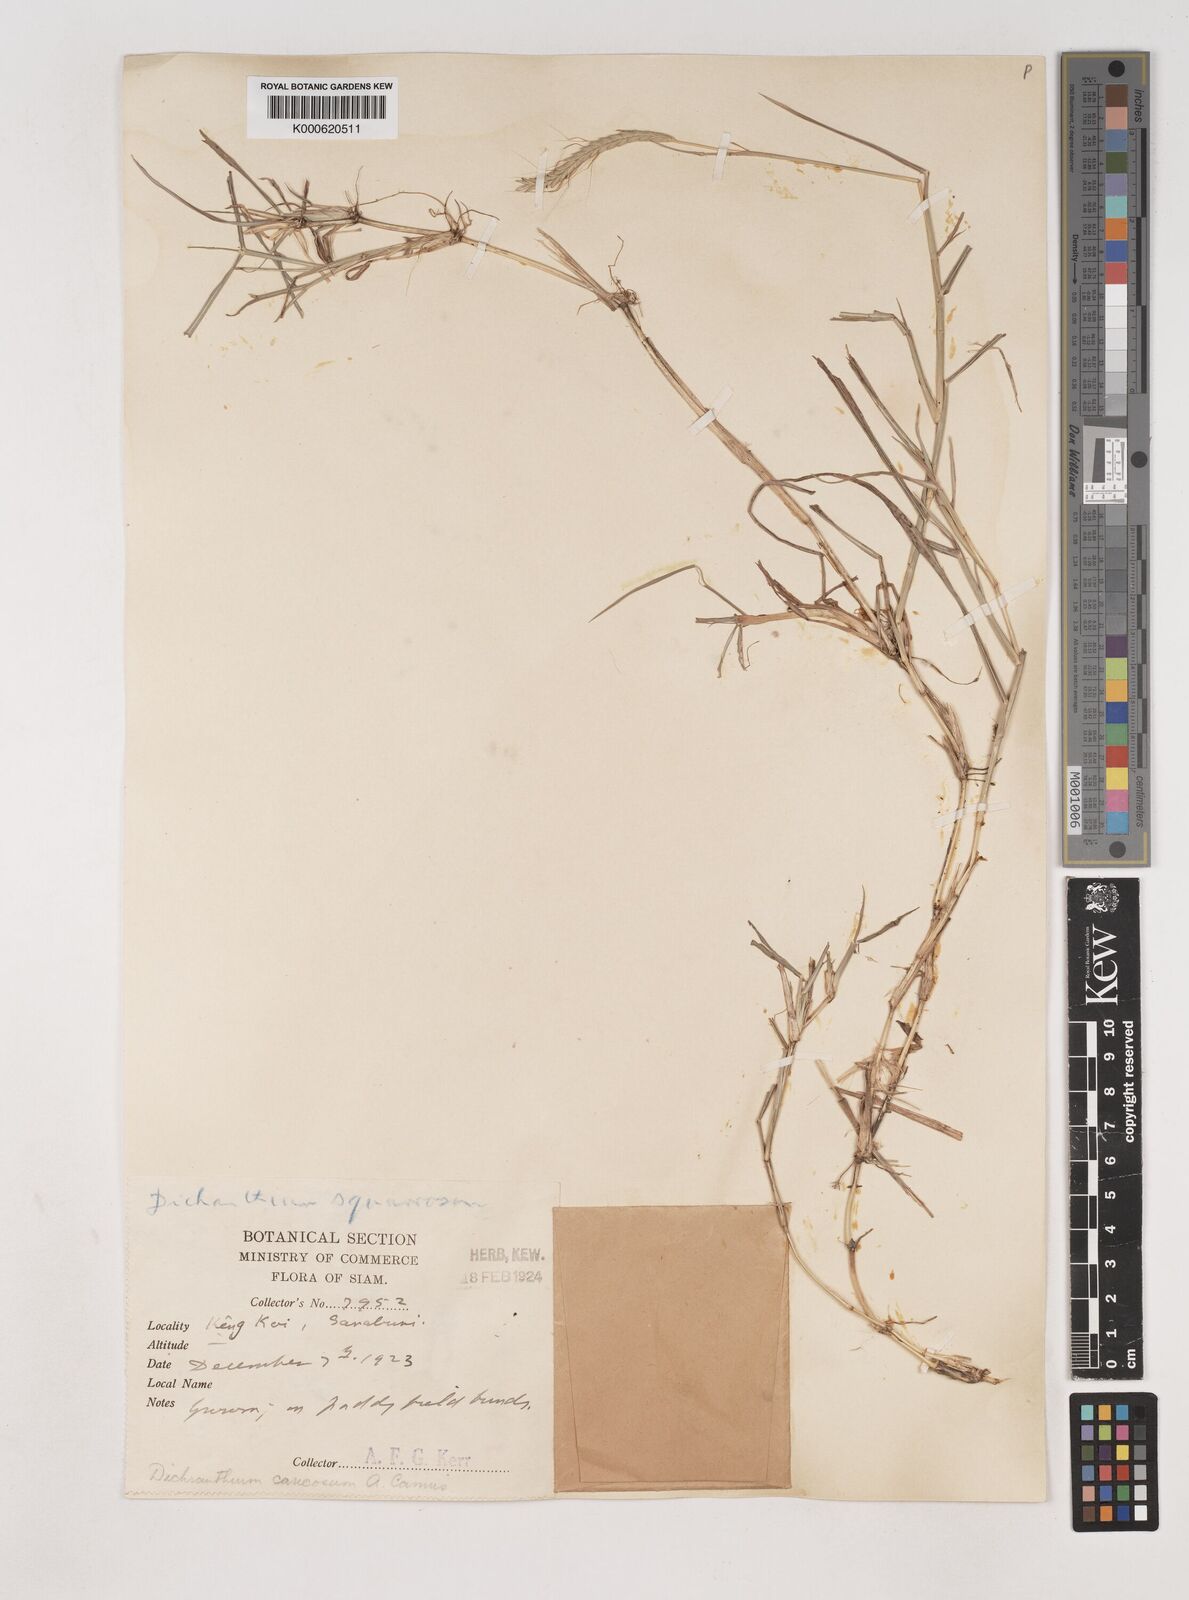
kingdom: Plantae
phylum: Tracheophyta
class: Liliopsida
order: Poales
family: Poaceae
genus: Dichanthium
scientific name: Dichanthium caricosum
